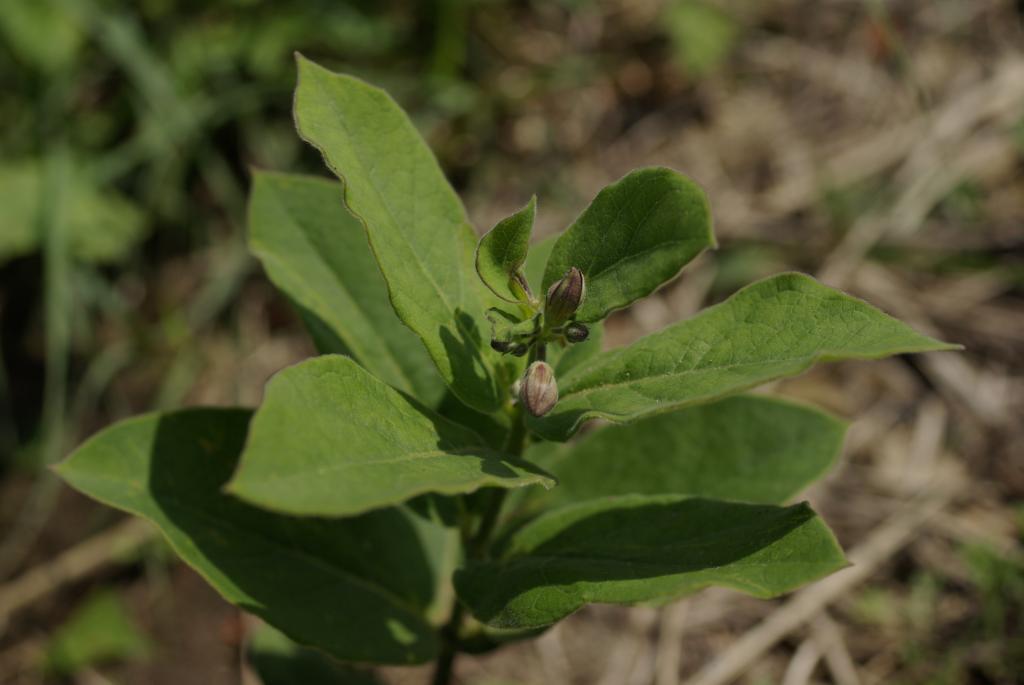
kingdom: Plantae
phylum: Tracheophyta
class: Magnoliopsida
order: Gentianales
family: Apocynaceae
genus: Vincetoxicum
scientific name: Vincetoxicum atratum
